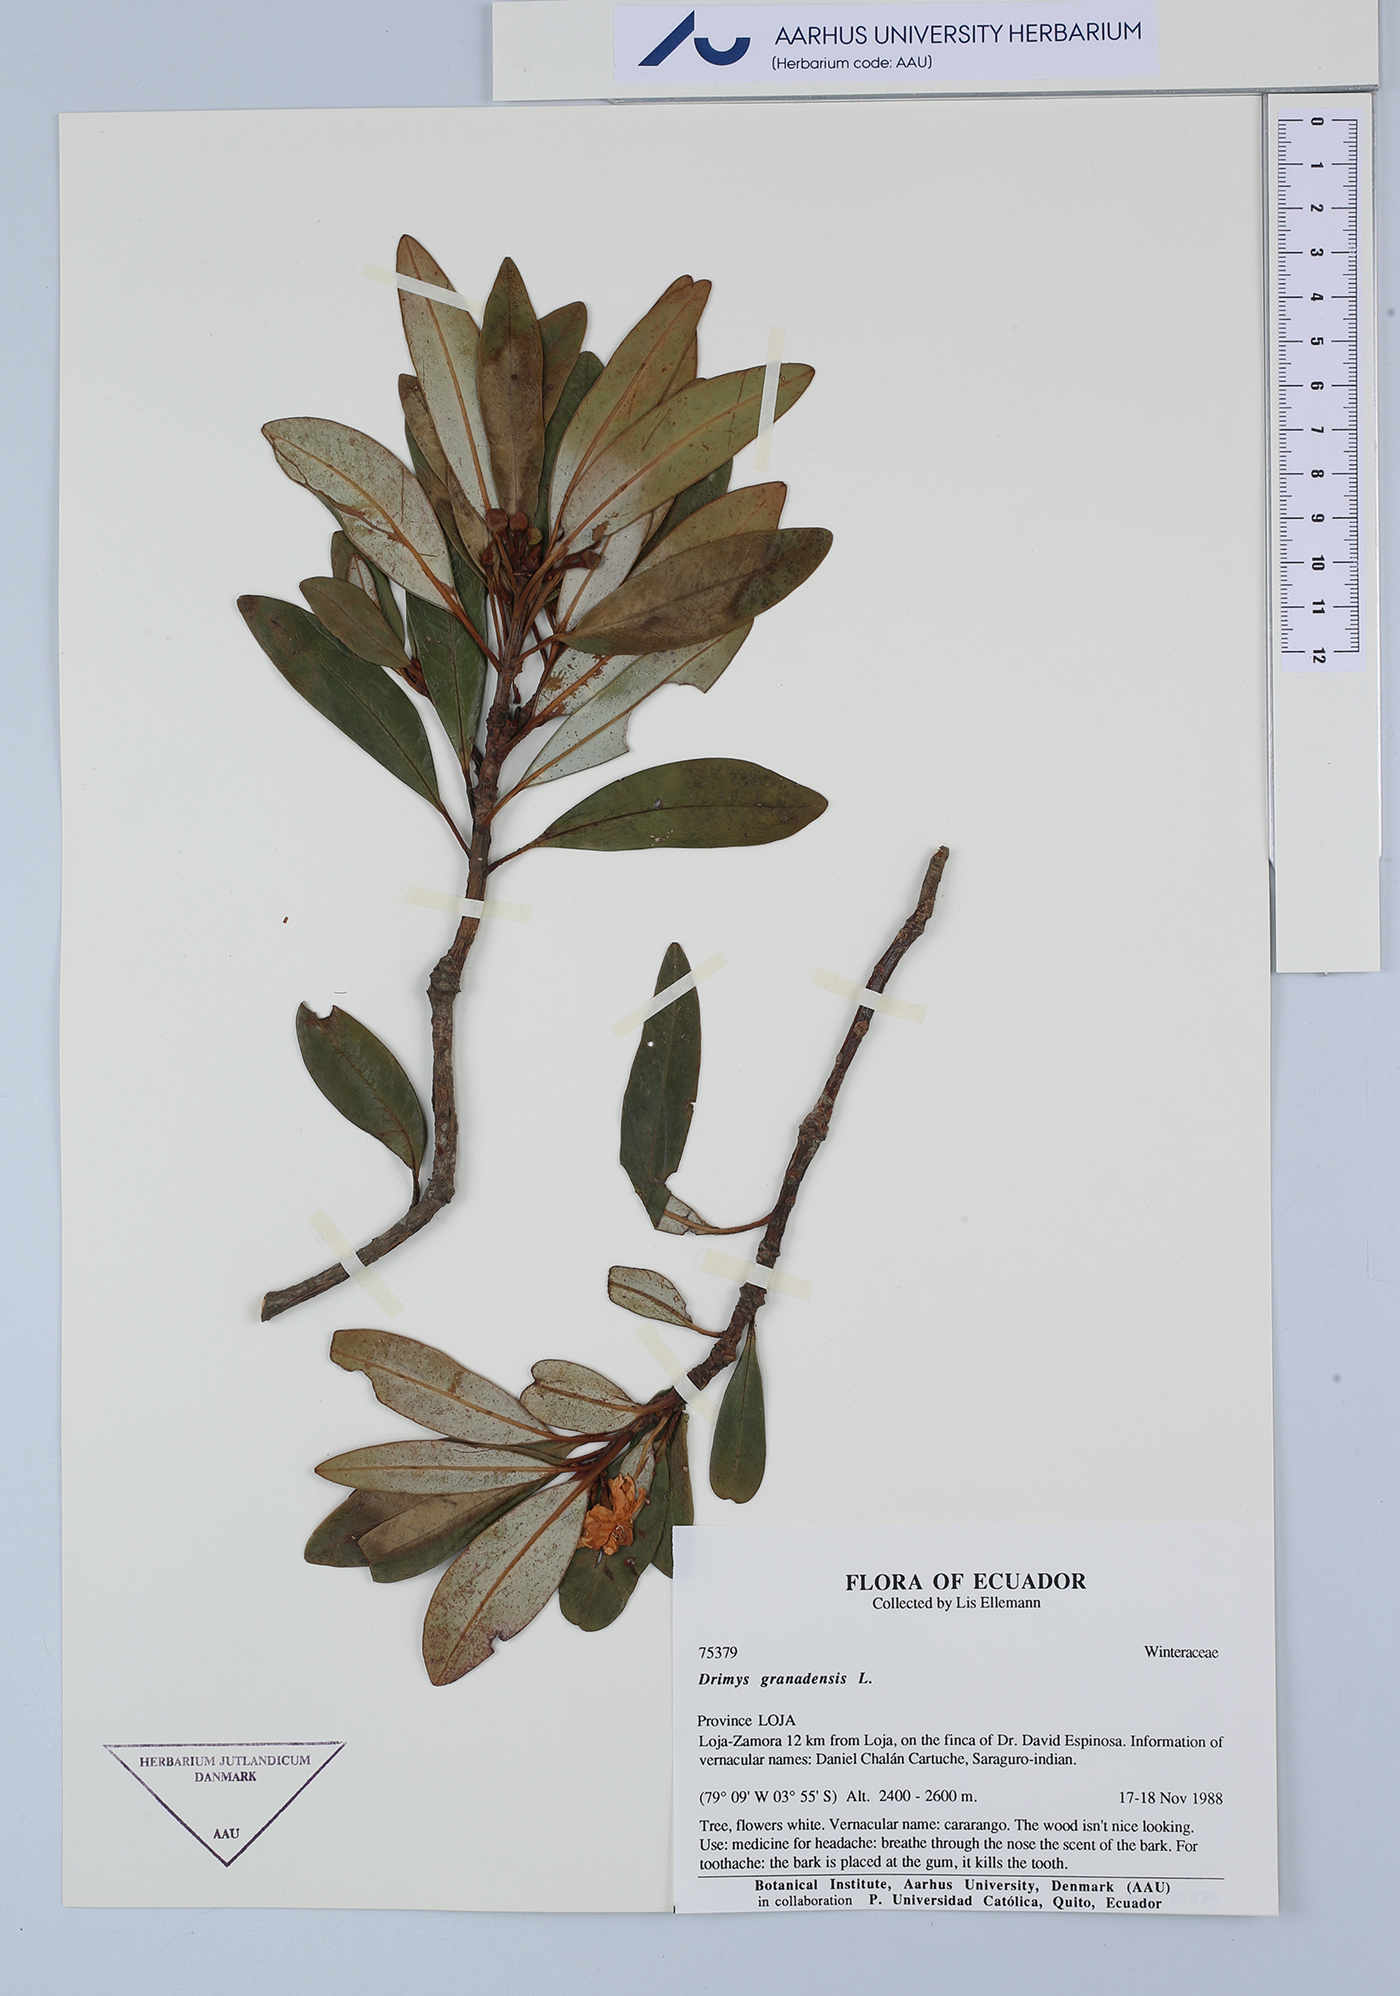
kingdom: Plantae
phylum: Tracheophyta
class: Magnoliopsida
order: Canellales
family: Winteraceae
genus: Drimys
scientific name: Drimys granadensis
